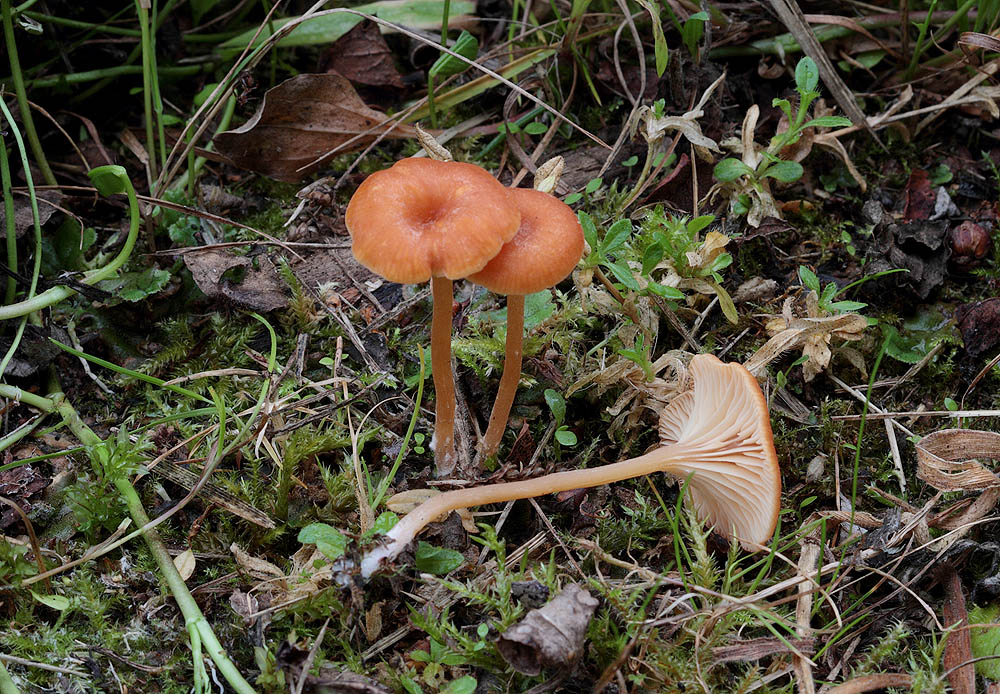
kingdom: Fungi
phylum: Basidiomycota
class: Agaricomycetes
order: Hymenochaetales
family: Rickenellaceae
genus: Loreleia
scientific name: Loreleia postii
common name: brandplet-mosnavlehat
